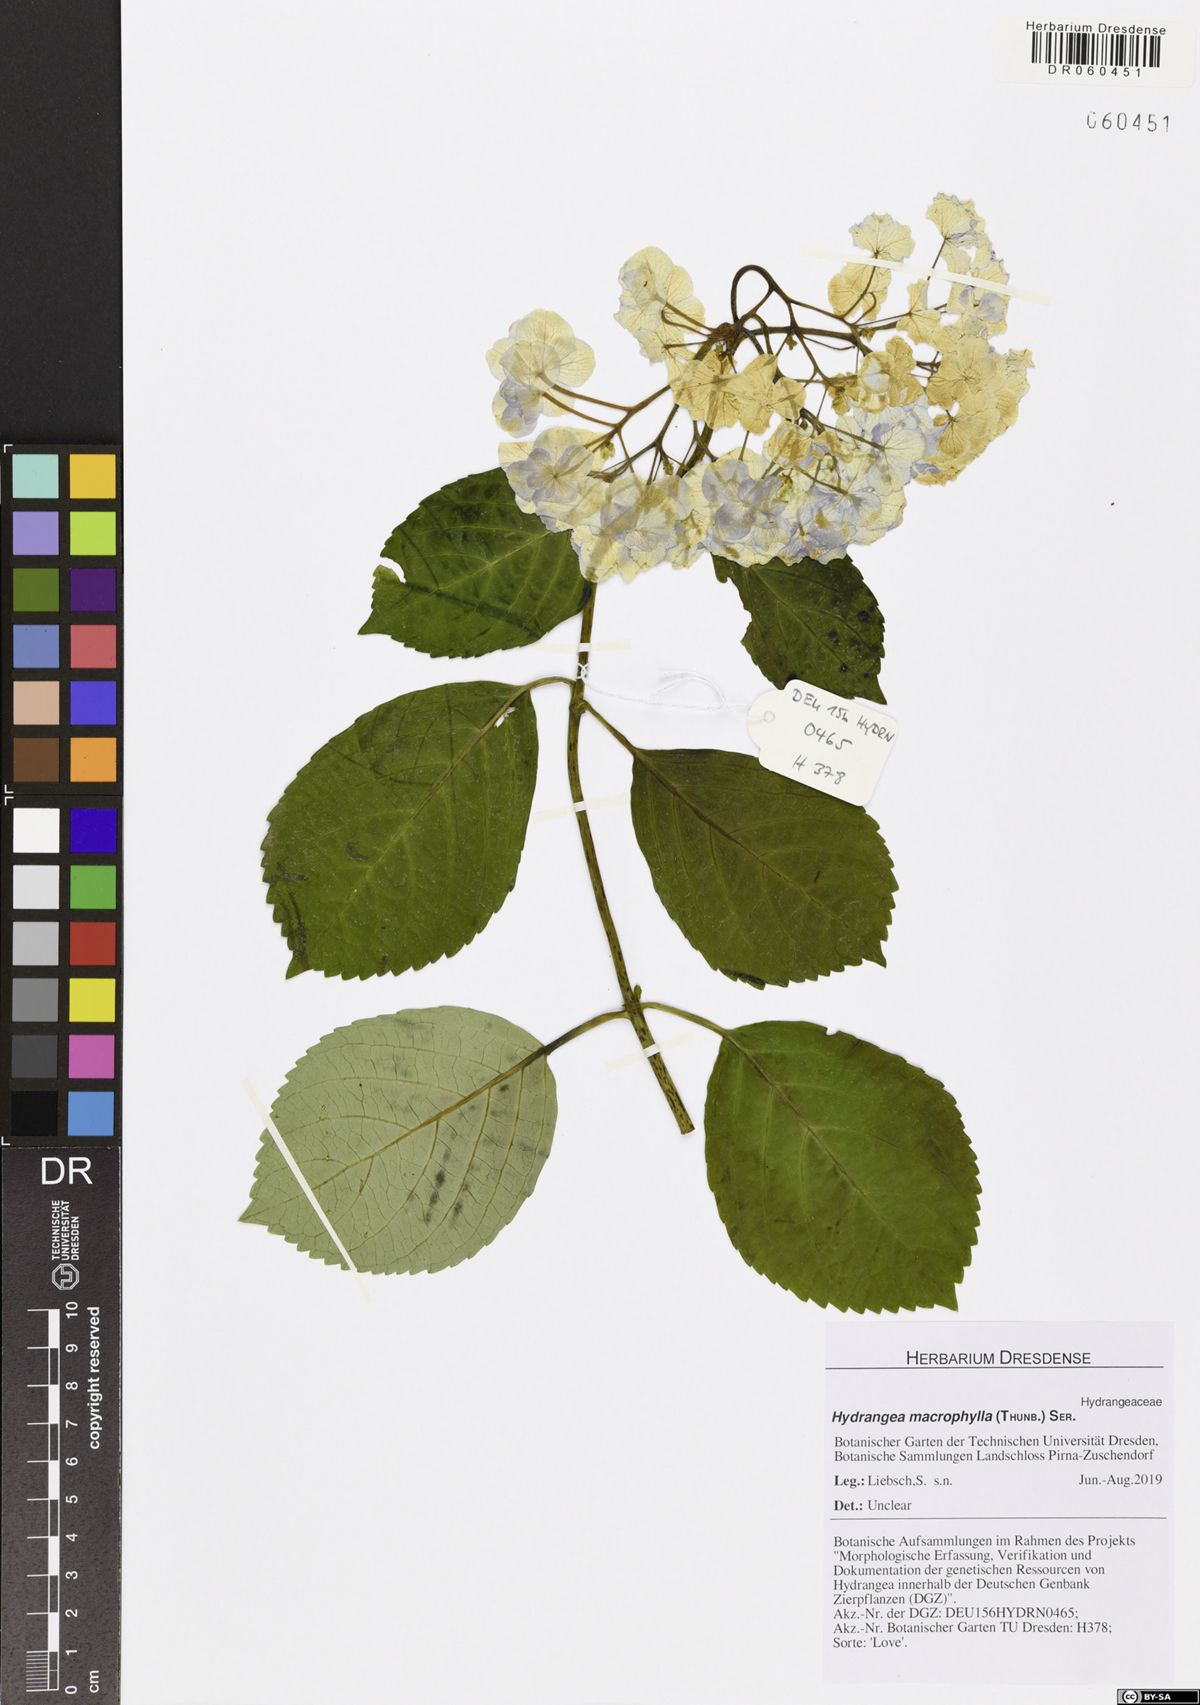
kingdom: Plantae
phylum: Tracheophyta
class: Magnoliopsida
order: Cornales
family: Hydrangeaceae
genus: Hydrangea
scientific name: Hydrangea macrophylla
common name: Hydrangea
